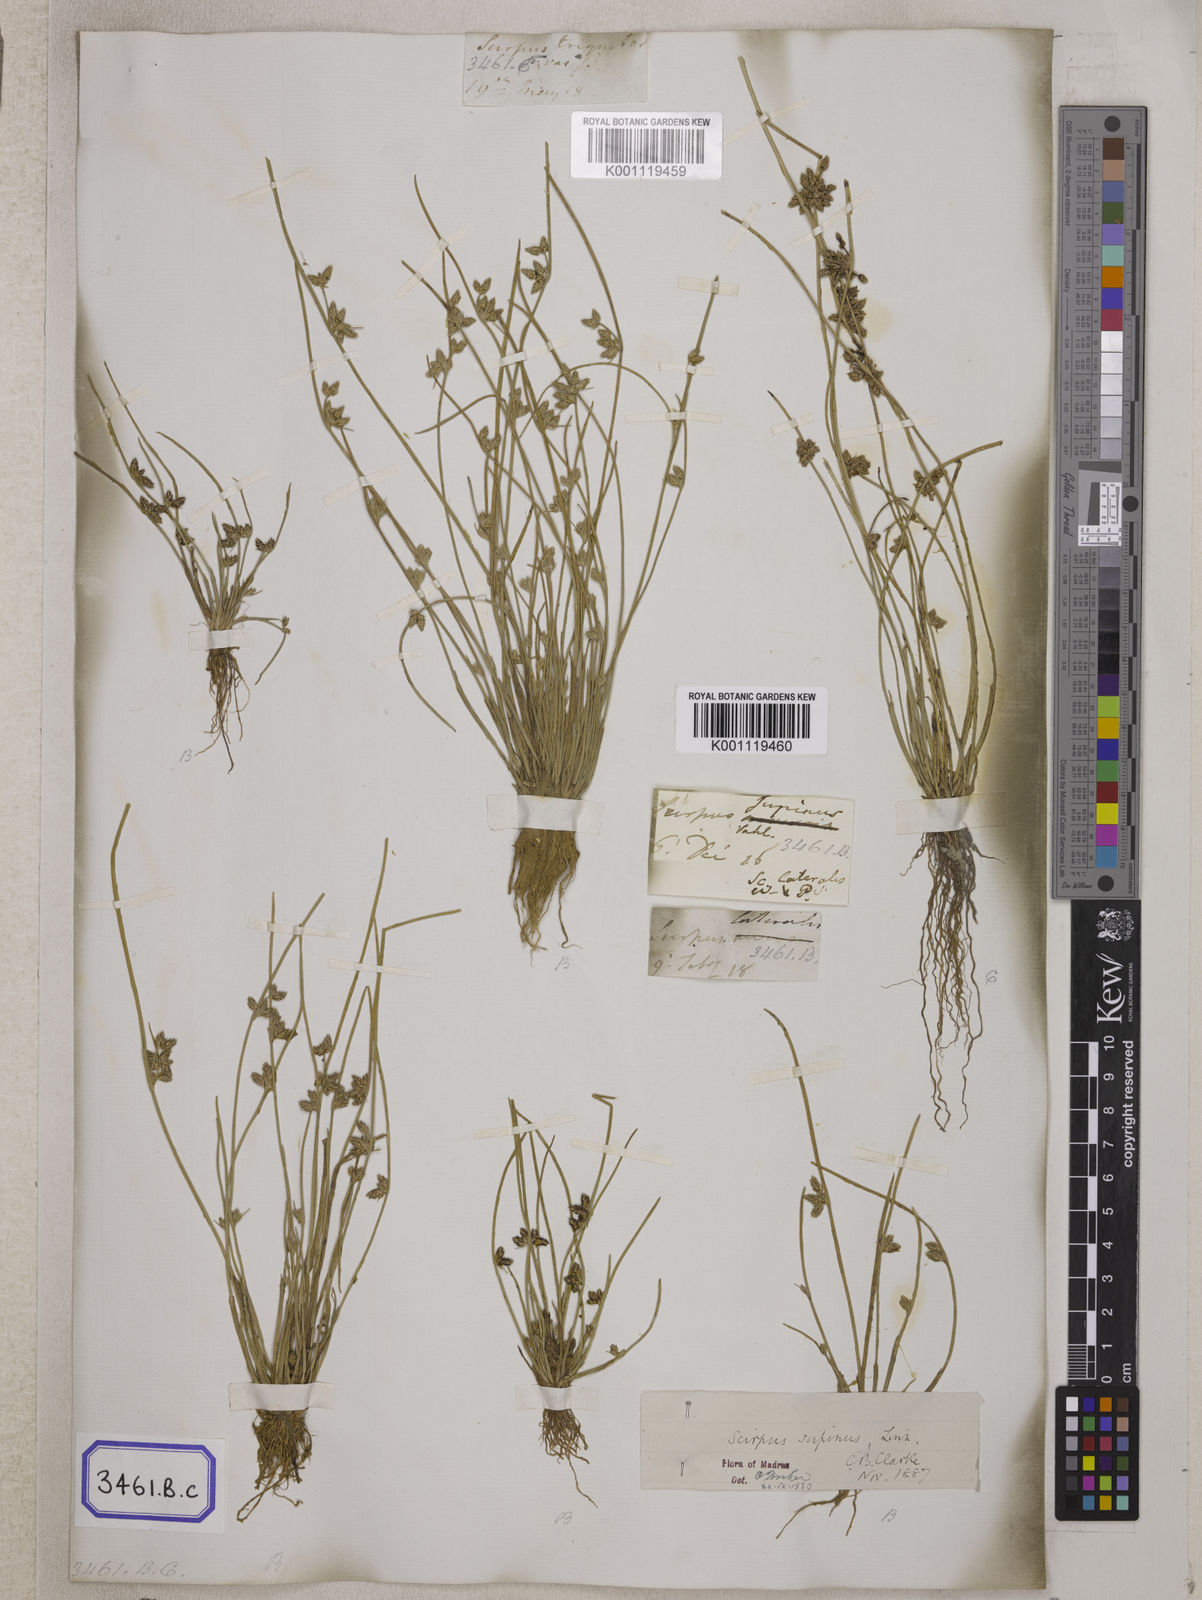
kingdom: Plantae
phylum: Tracheophyta
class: Liliopsida
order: Poales
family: Cyperaceae
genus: Scirpus
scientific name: Scirpus
